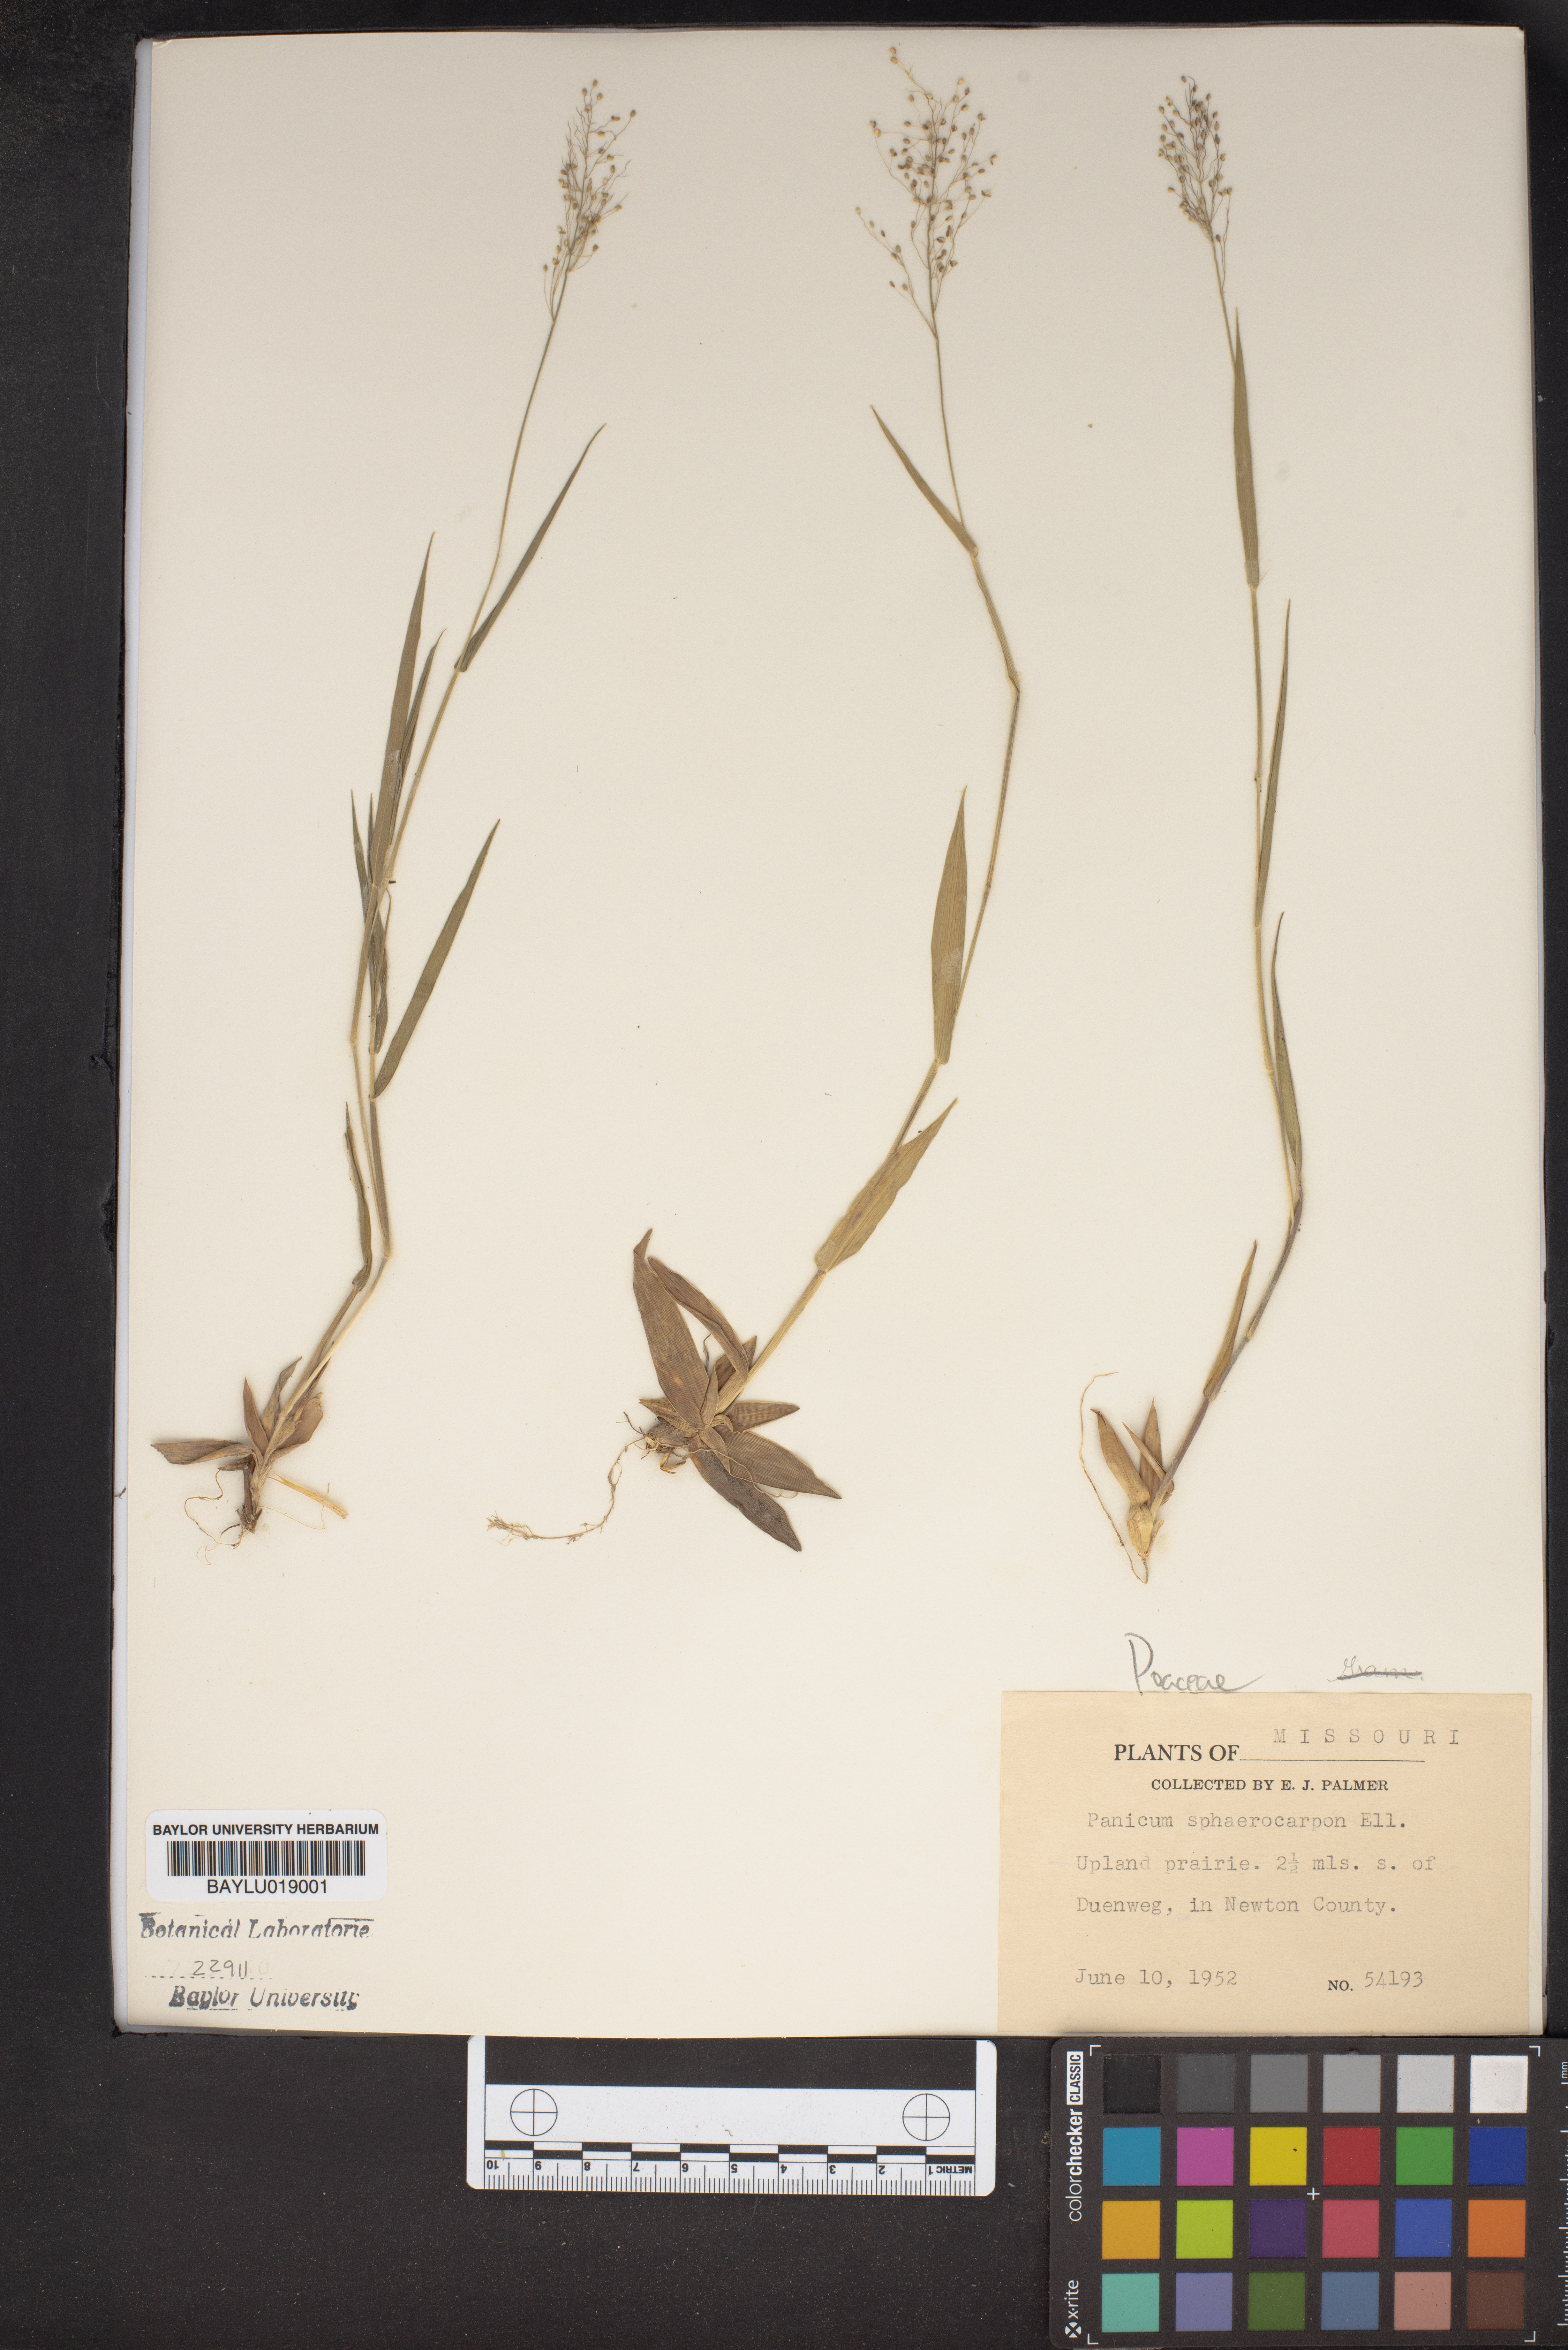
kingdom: Plantae
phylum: Tracheophyta
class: Liliopsida
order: Poales
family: Poaceae
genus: Dichanthelium
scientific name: Dichanthelium sphaerocarpon
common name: Round-fruited panicgrass
